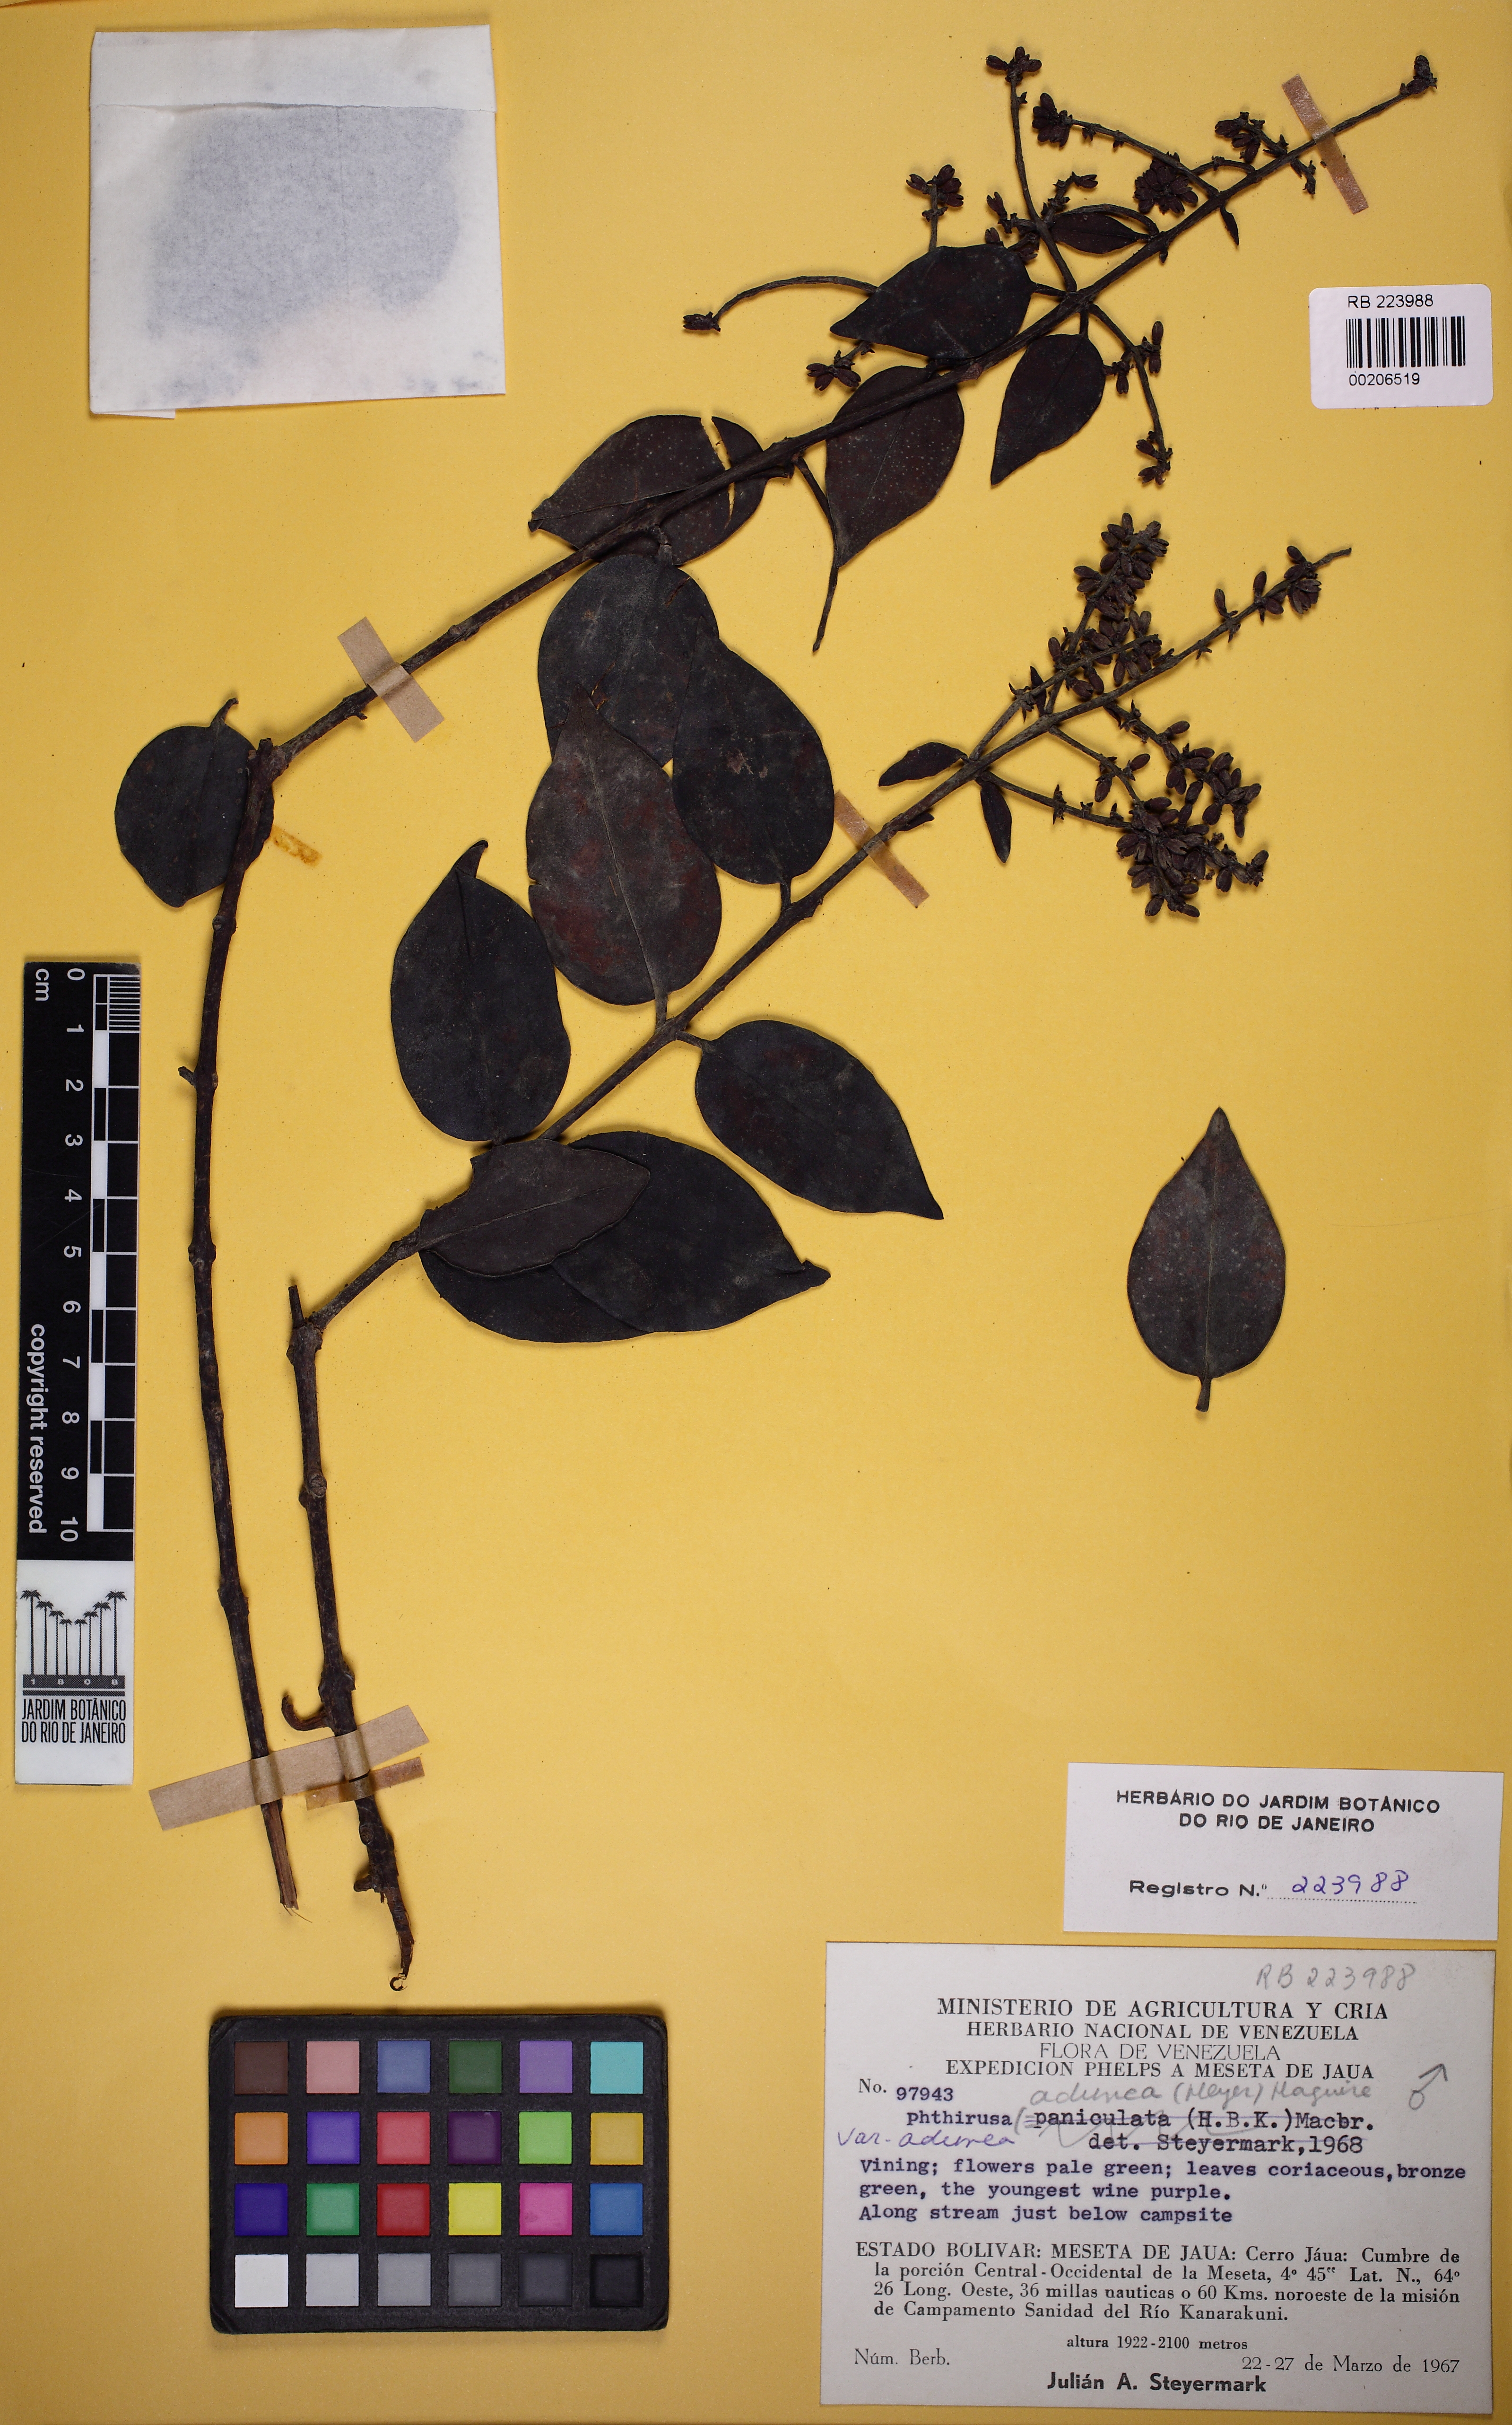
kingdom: Plantae
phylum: Tracheophyta
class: Magnoliopsida
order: Santalales
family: Loranthaceae
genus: Passovia
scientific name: Passovia pedunculata
